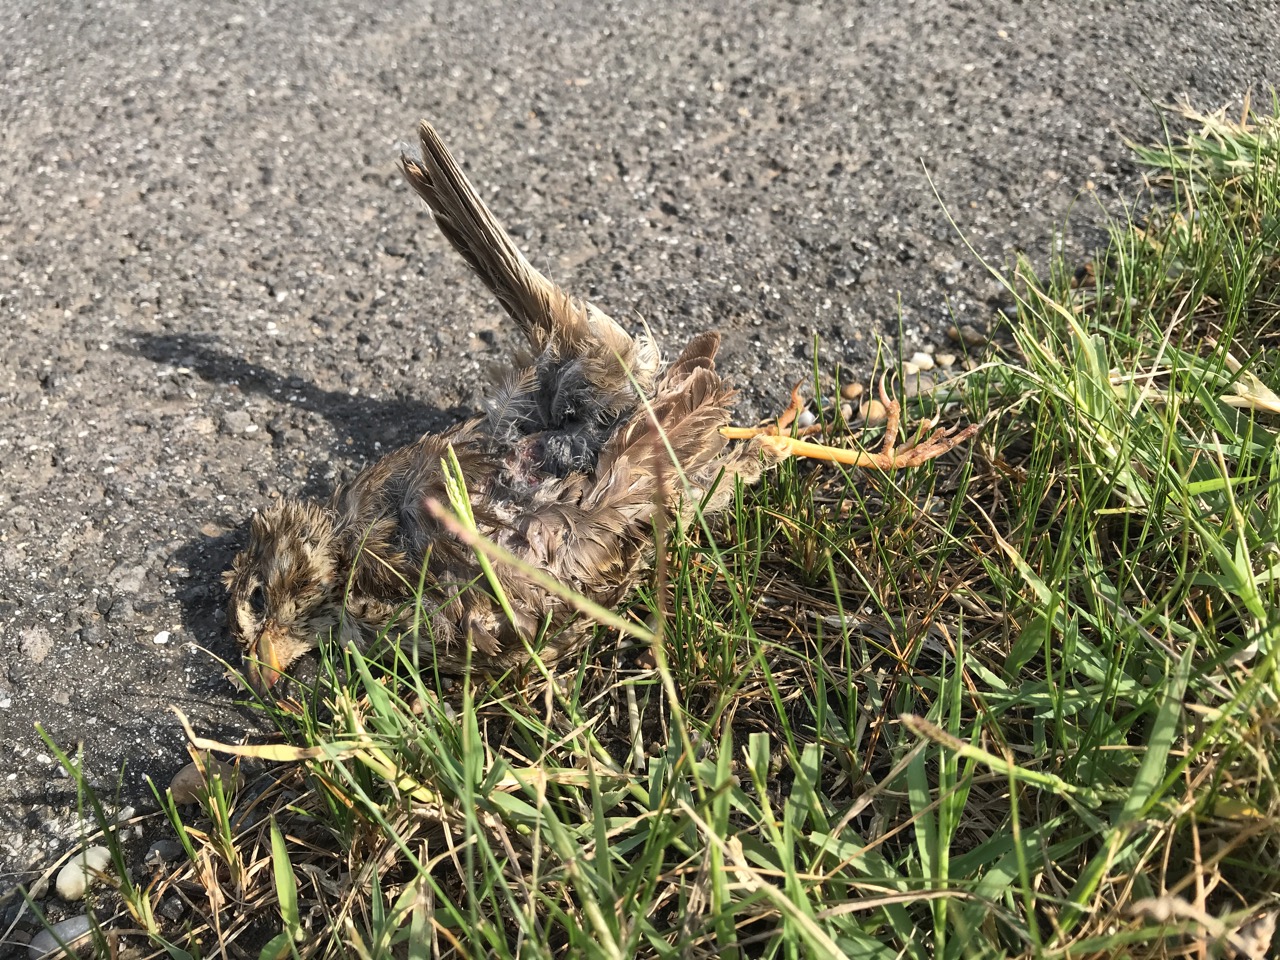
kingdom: Animalia
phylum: Chordata
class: Aves
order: Passeriformes
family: Emberizidae
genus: Emberiza
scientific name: Emberiza calandra
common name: Corn bunting
